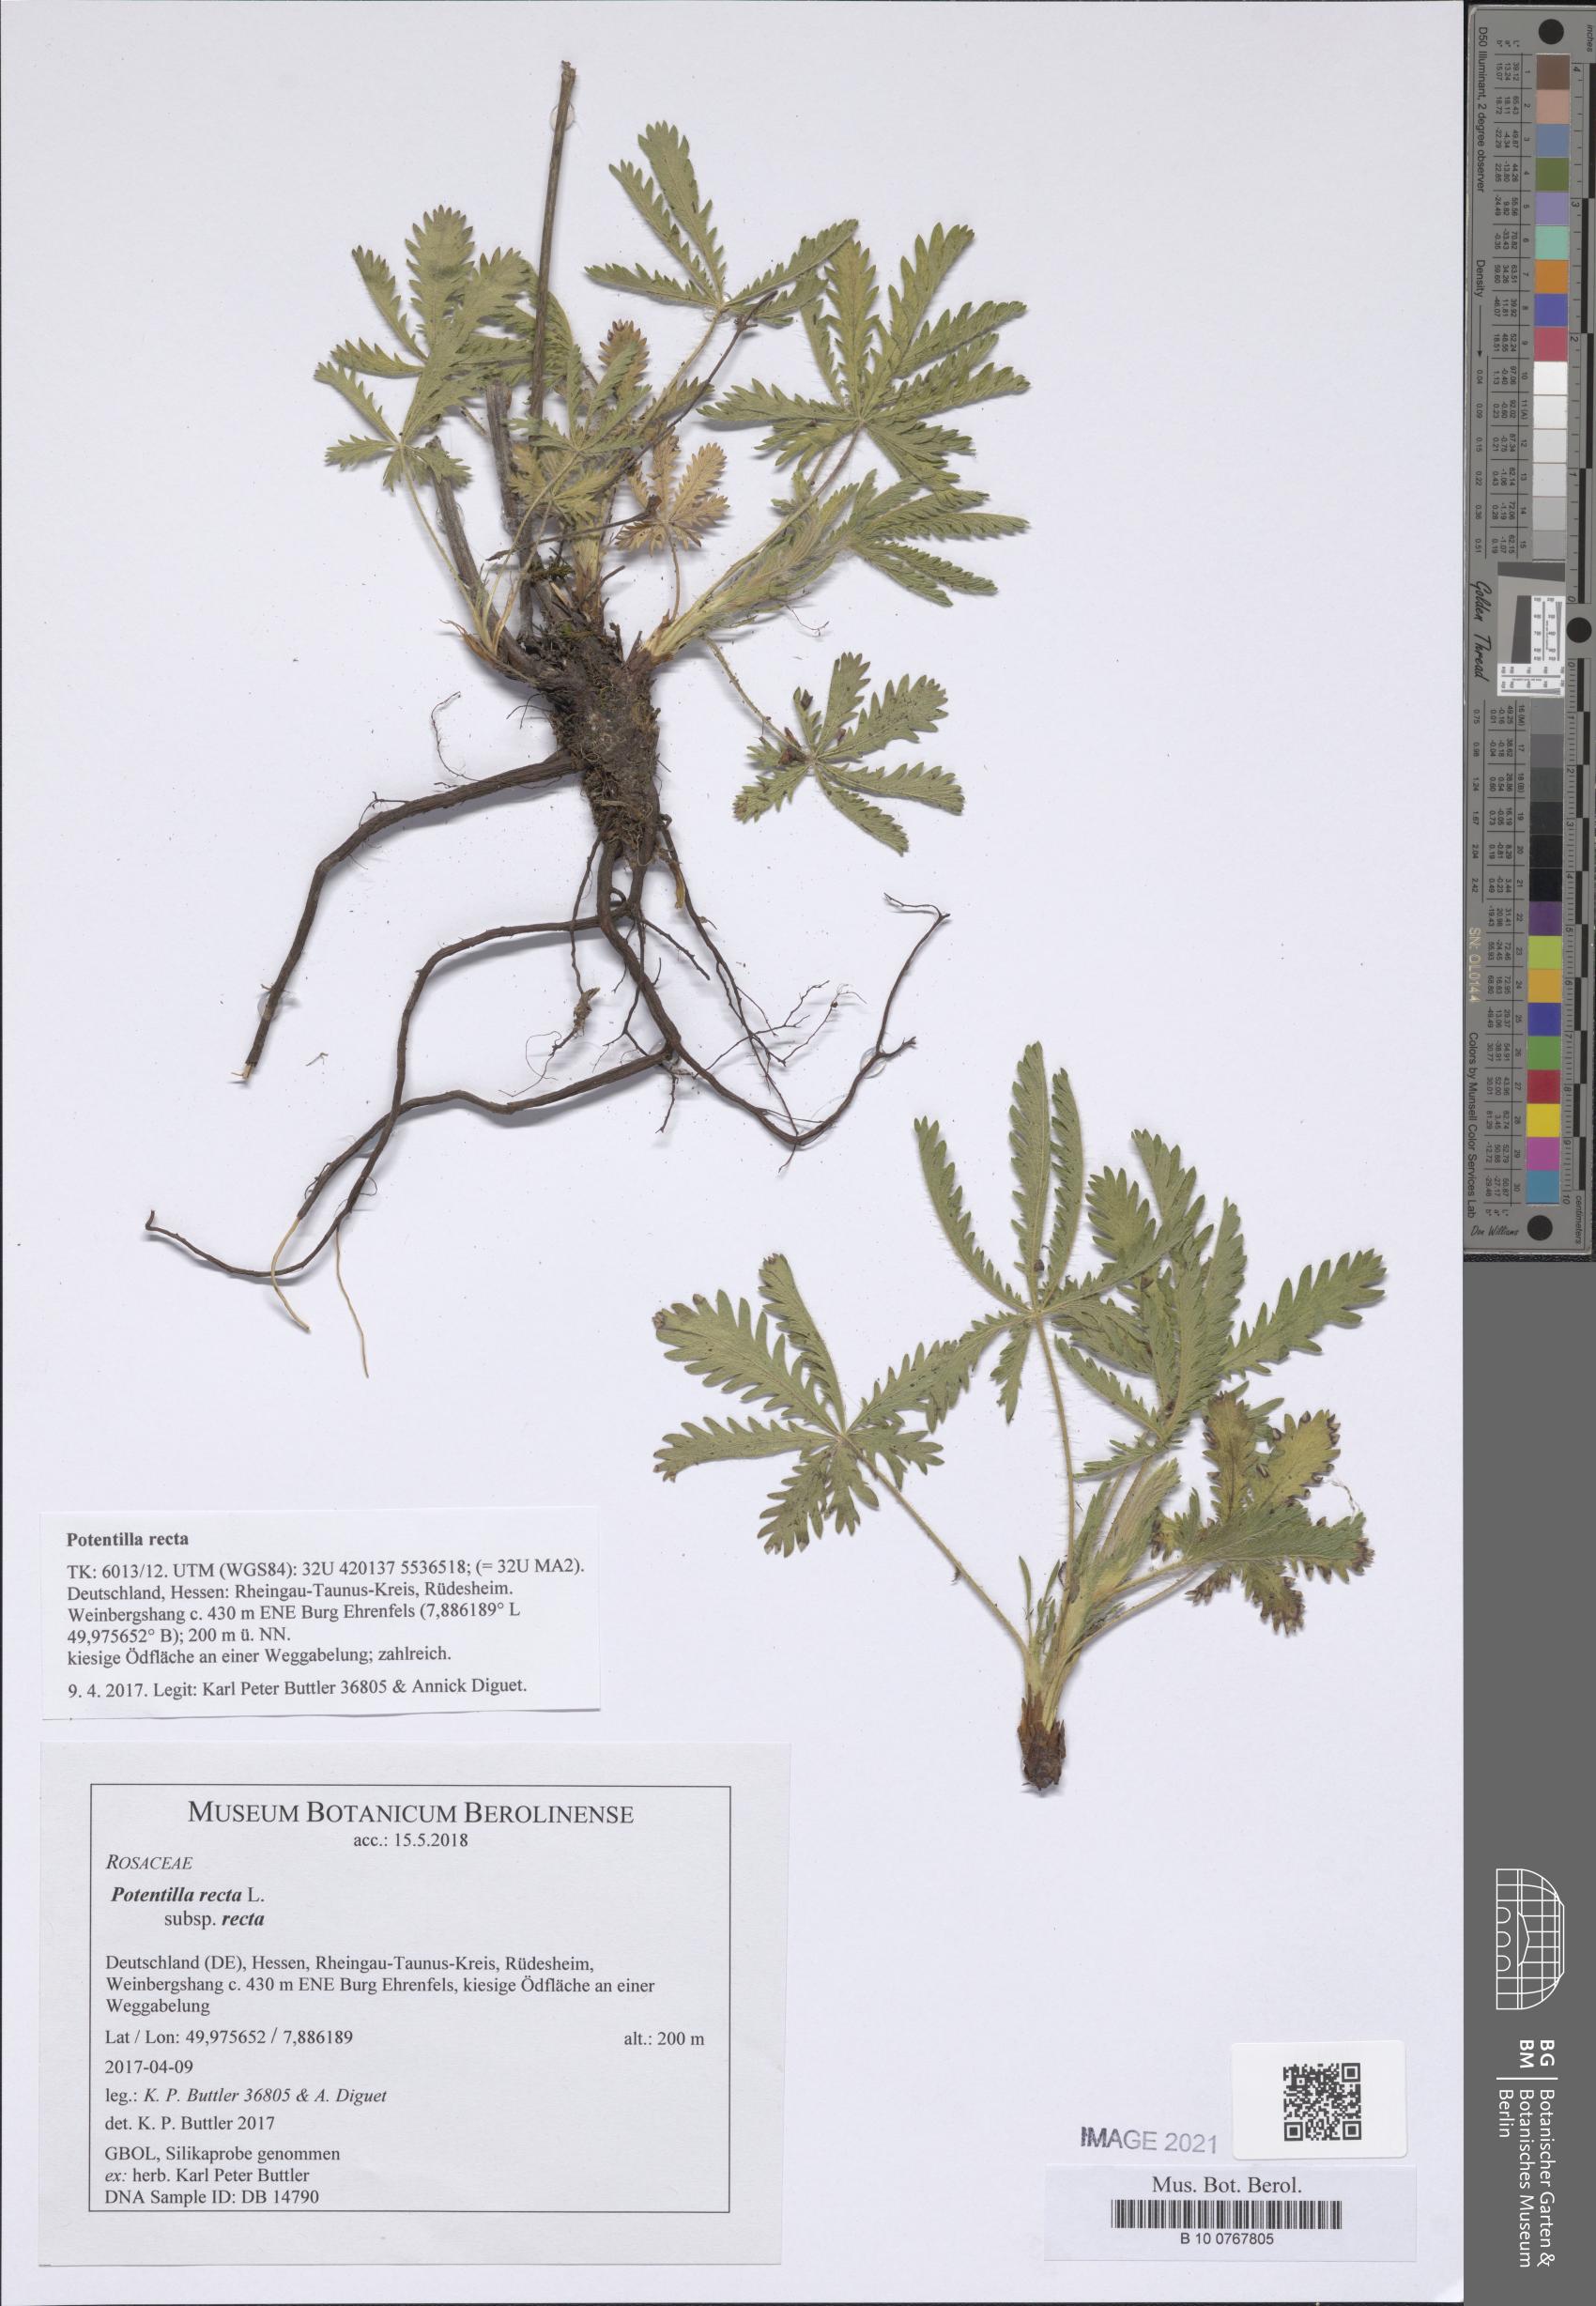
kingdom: Plantae
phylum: Tracheophyta
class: Magnoliopsida
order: Rosales
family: Rosaceae
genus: Potentilla
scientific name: Potentilla recta
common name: Sulphur cinquefoil
